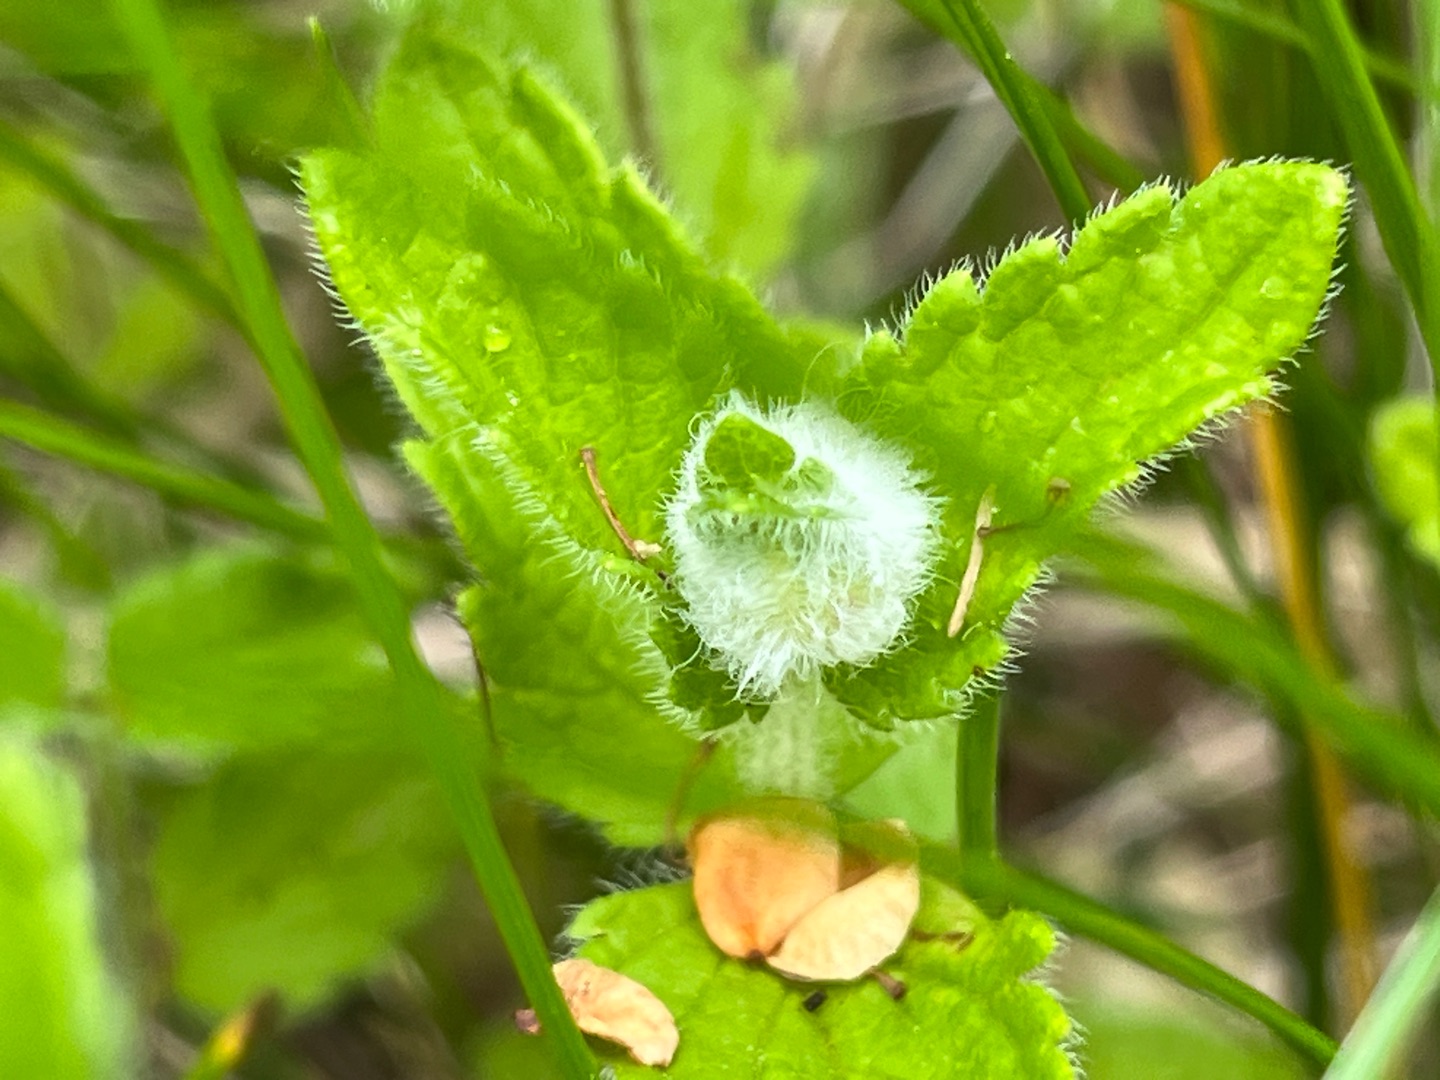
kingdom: Animalia
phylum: Arthropoda
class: Insecta
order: Diptera
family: Cecidomyiidae
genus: Jaapiella
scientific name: Jaapiella veronicae
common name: Ærenprisgalmyg
